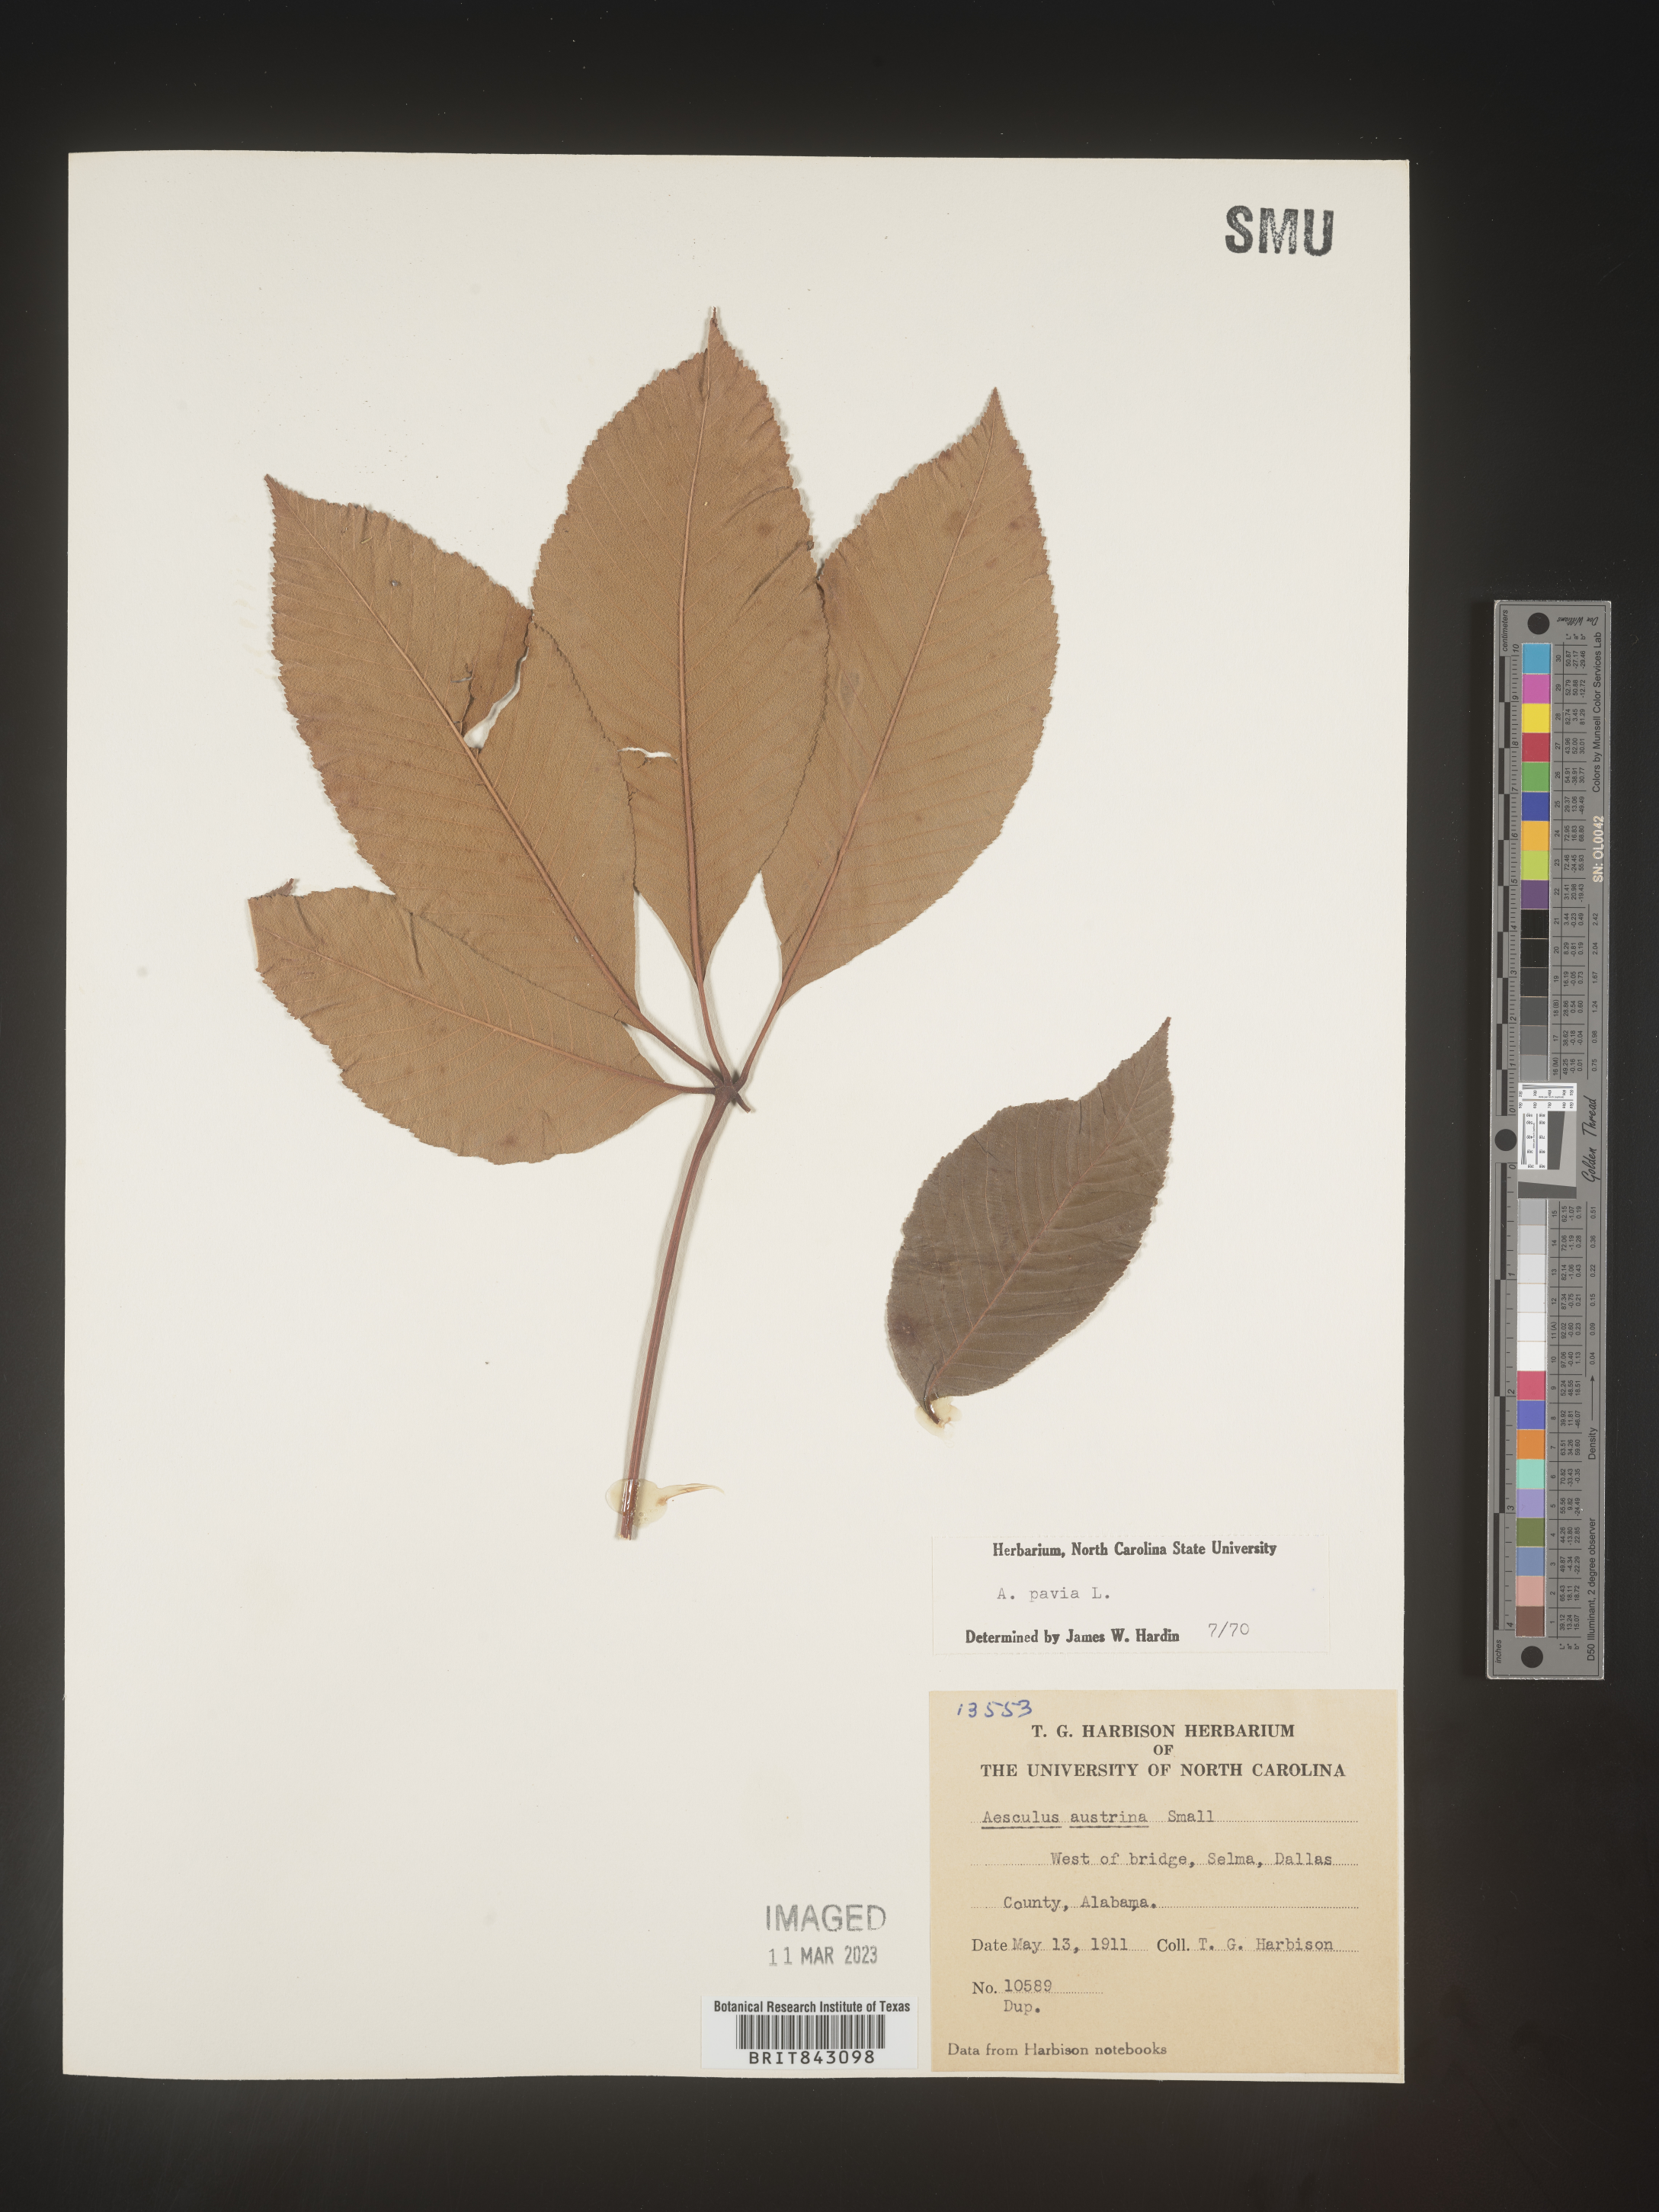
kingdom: Plantae
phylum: Tracheophyta
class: Magnoliopsida
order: Sapindales
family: Sapindaceae
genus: Aesculus
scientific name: Aesculus pavia
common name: Red buckeye
